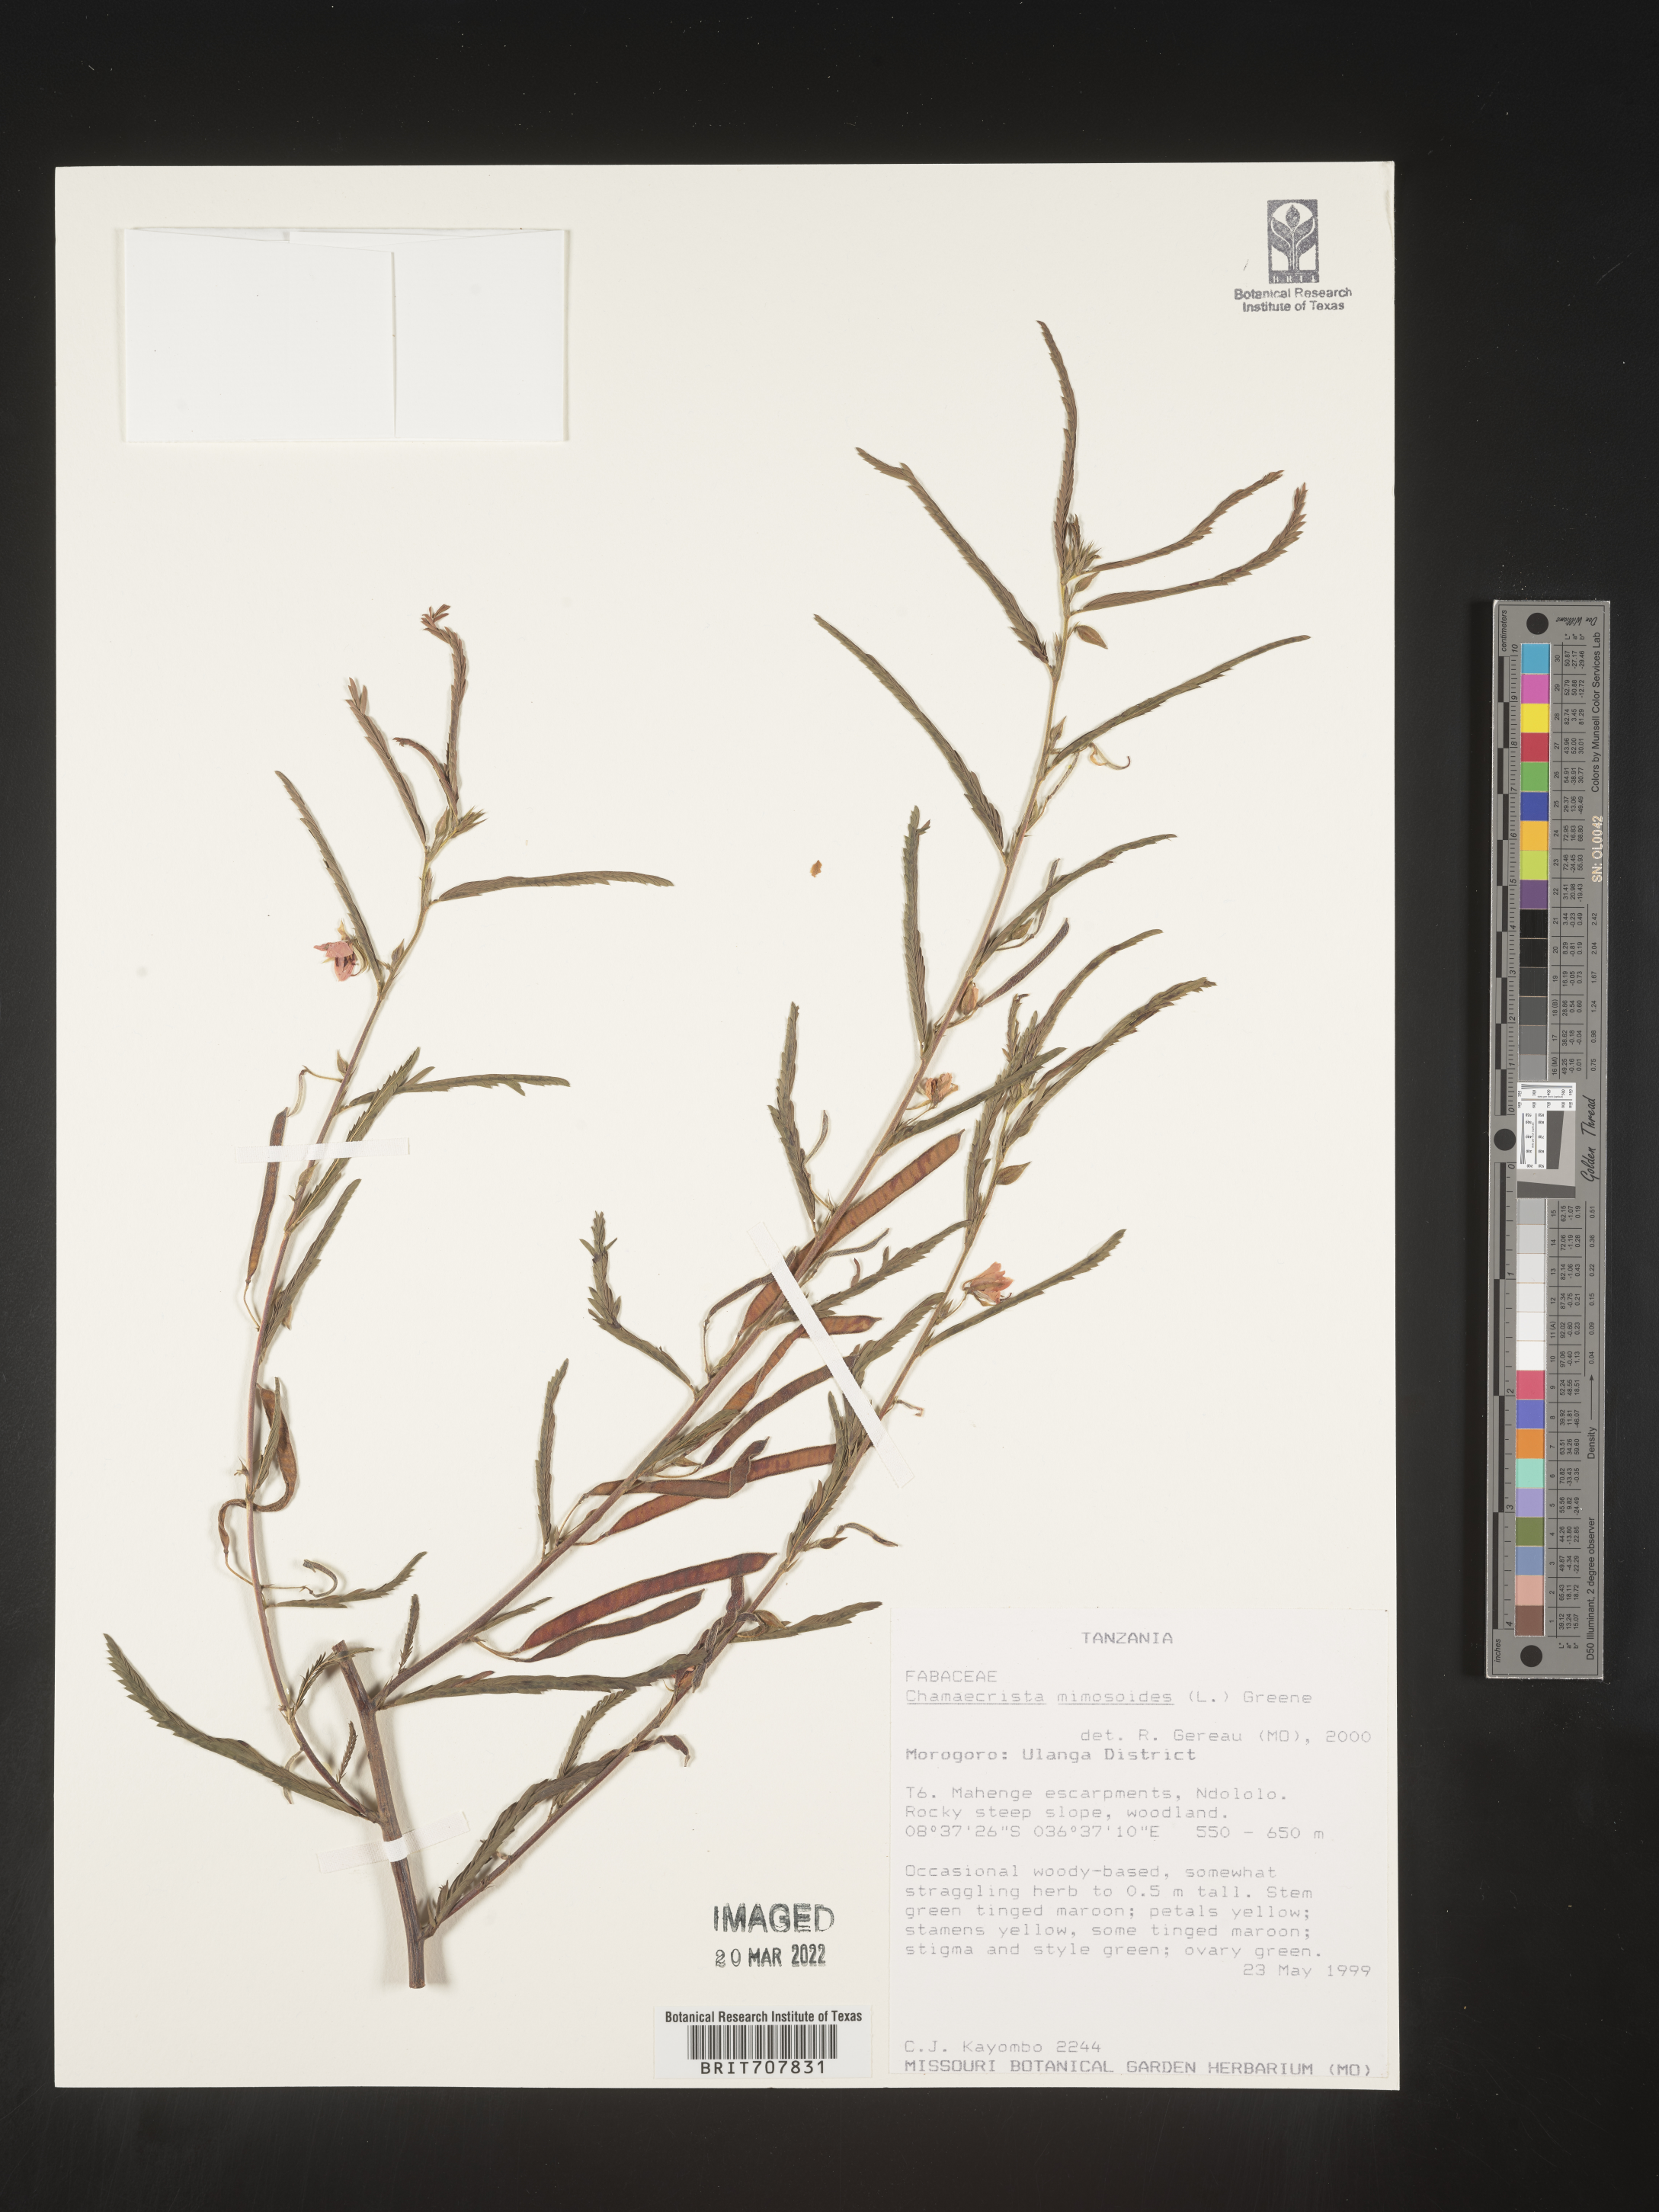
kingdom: Plantae
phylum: Tracheophyta
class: Magnoliopsida
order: Fabales
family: Fabaceae
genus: Chamaecrista
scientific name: Chamaecrista
